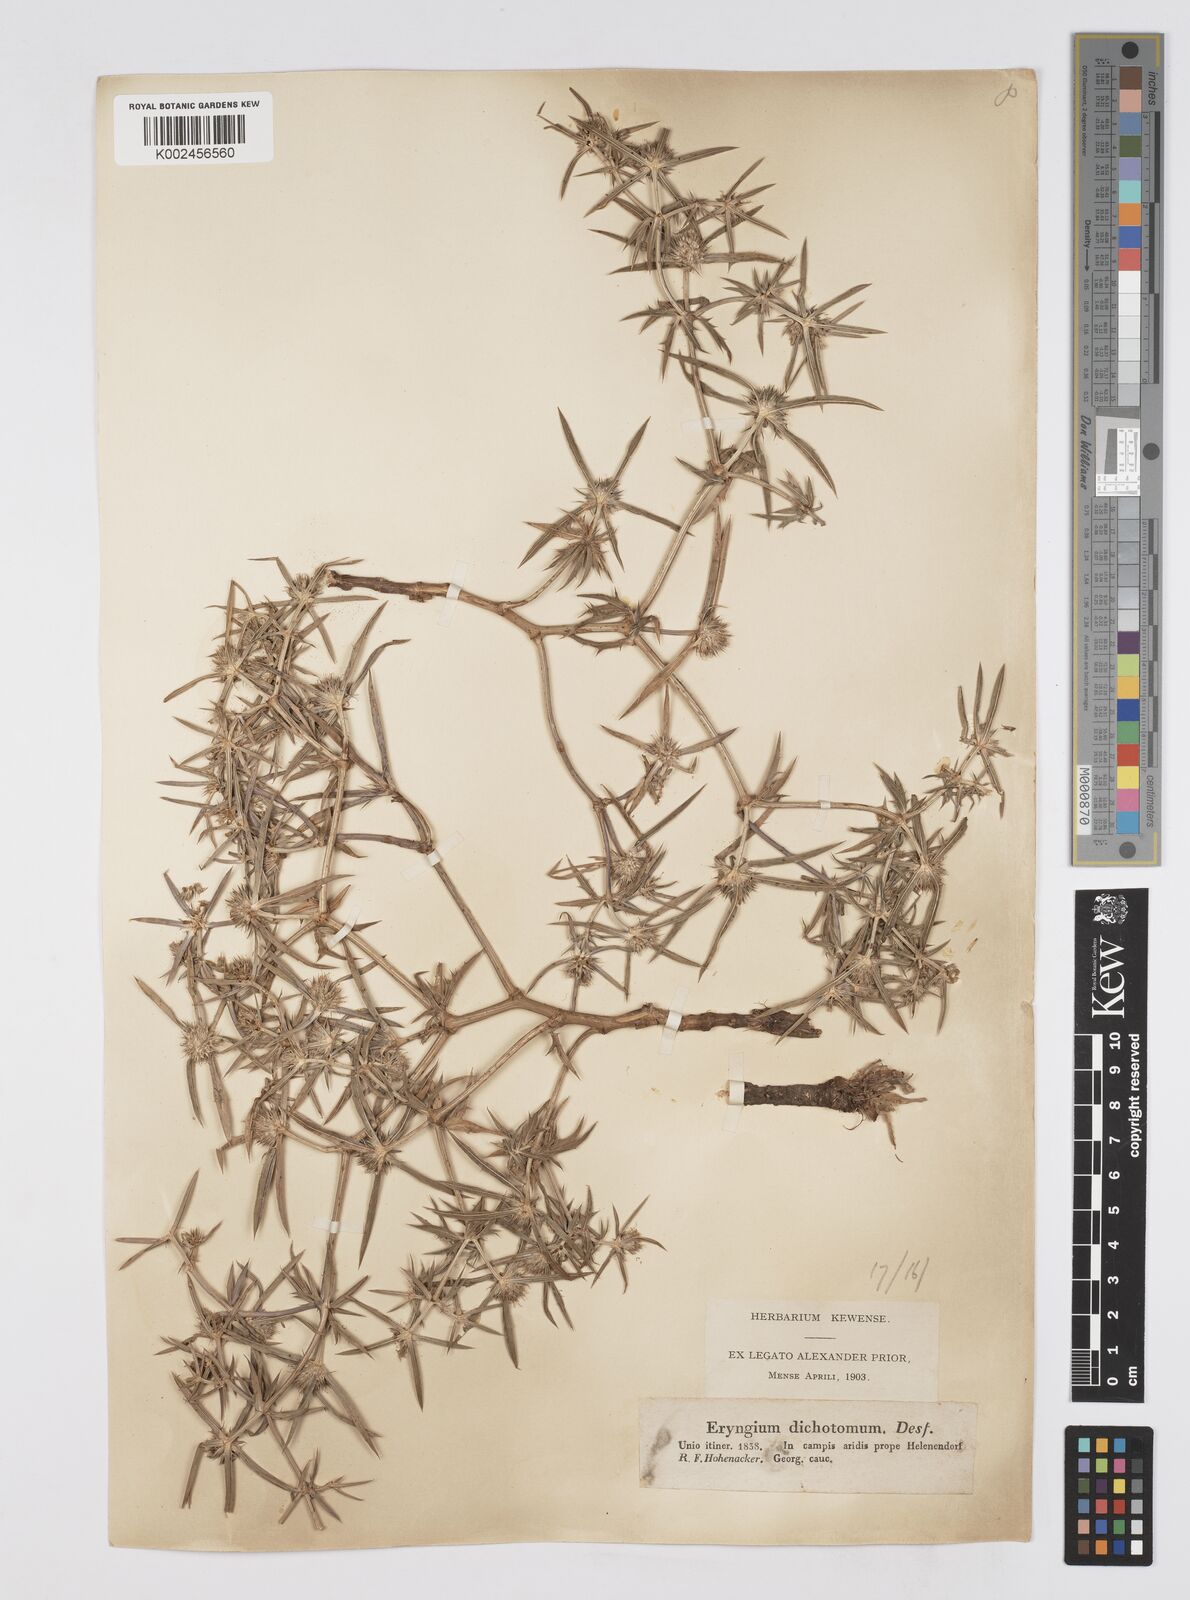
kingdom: Plantae
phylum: Tracheophyta
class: Magnoliopsida
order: Apiales
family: Apiaceae
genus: Eryngium
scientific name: Eryngium caeruleum
